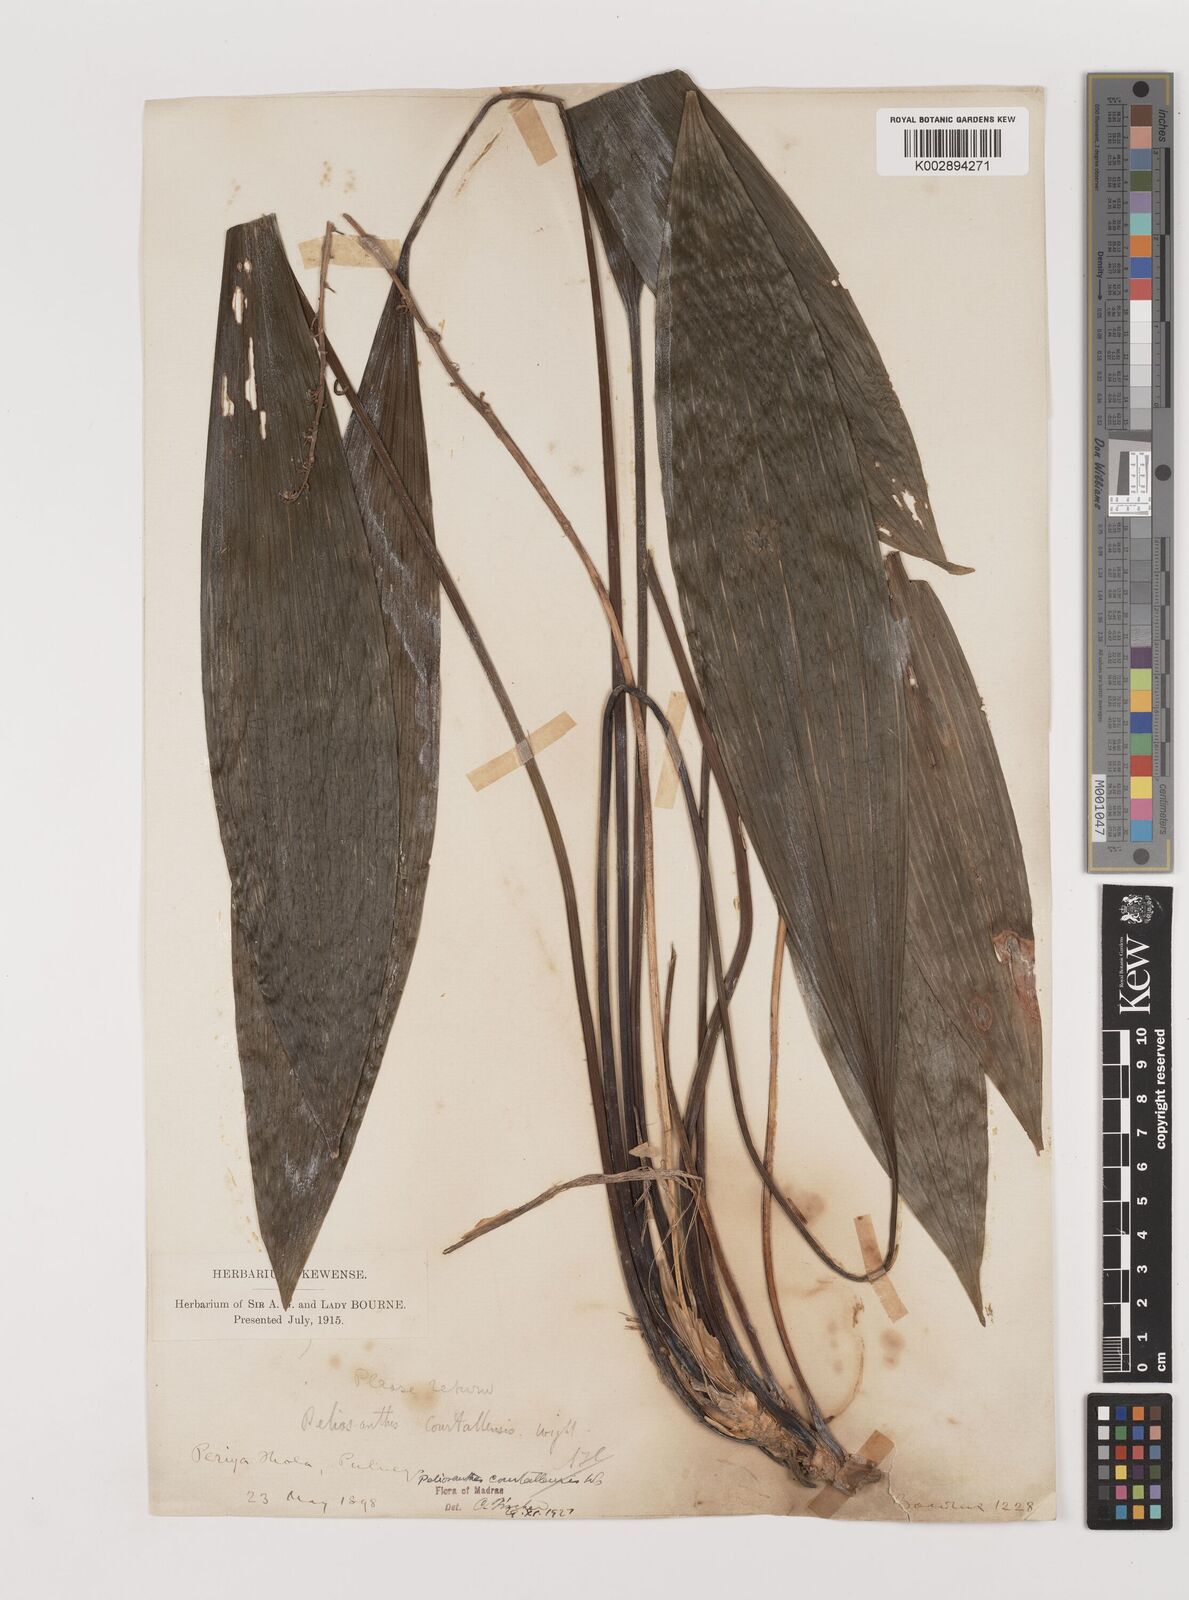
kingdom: Plantae
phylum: Tracheophyta
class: Liliopsida
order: Asparagales
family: Asparagaceae
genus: Peliosanthes
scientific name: Peliosanthes teta
